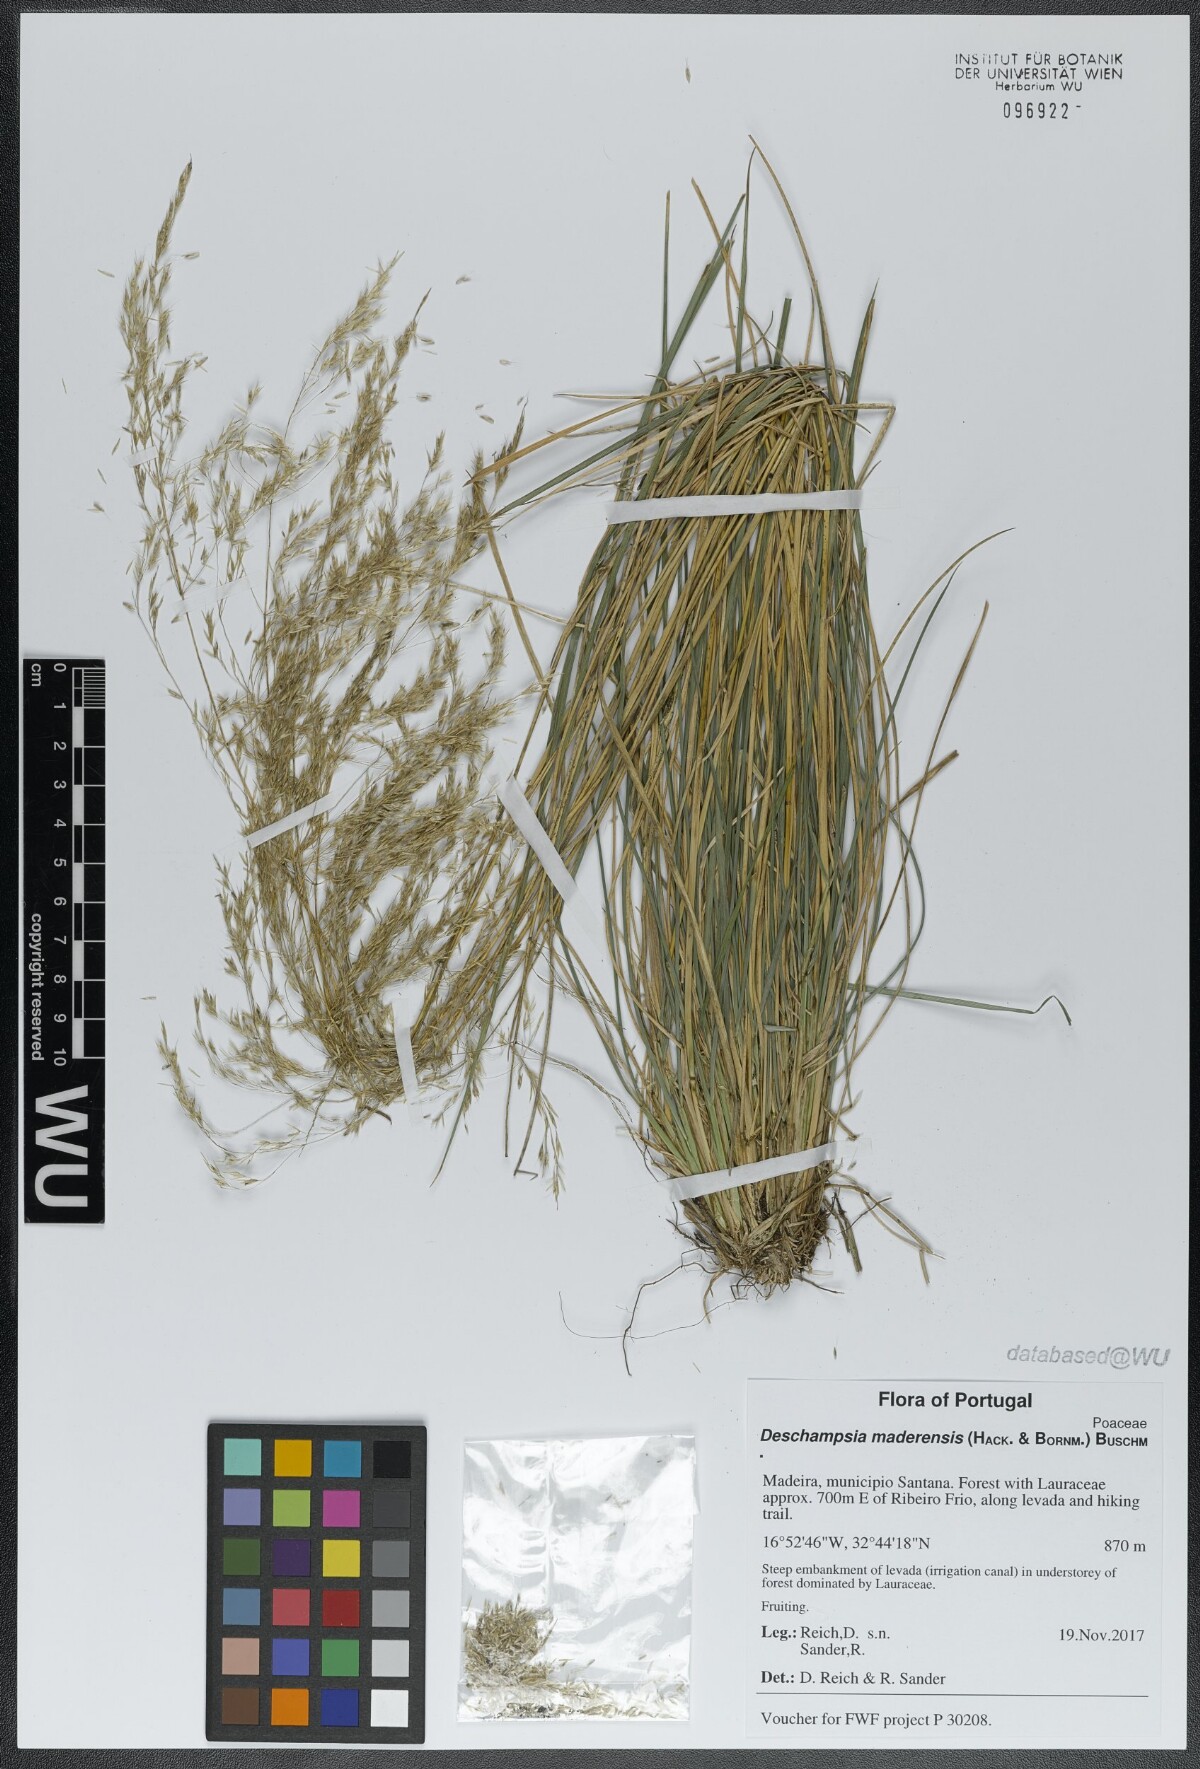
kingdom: Plantae
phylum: Tracheophyta
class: Liliopsida
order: Poales
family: Poaceae
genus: Deschampsia
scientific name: Deschampsia argentea
